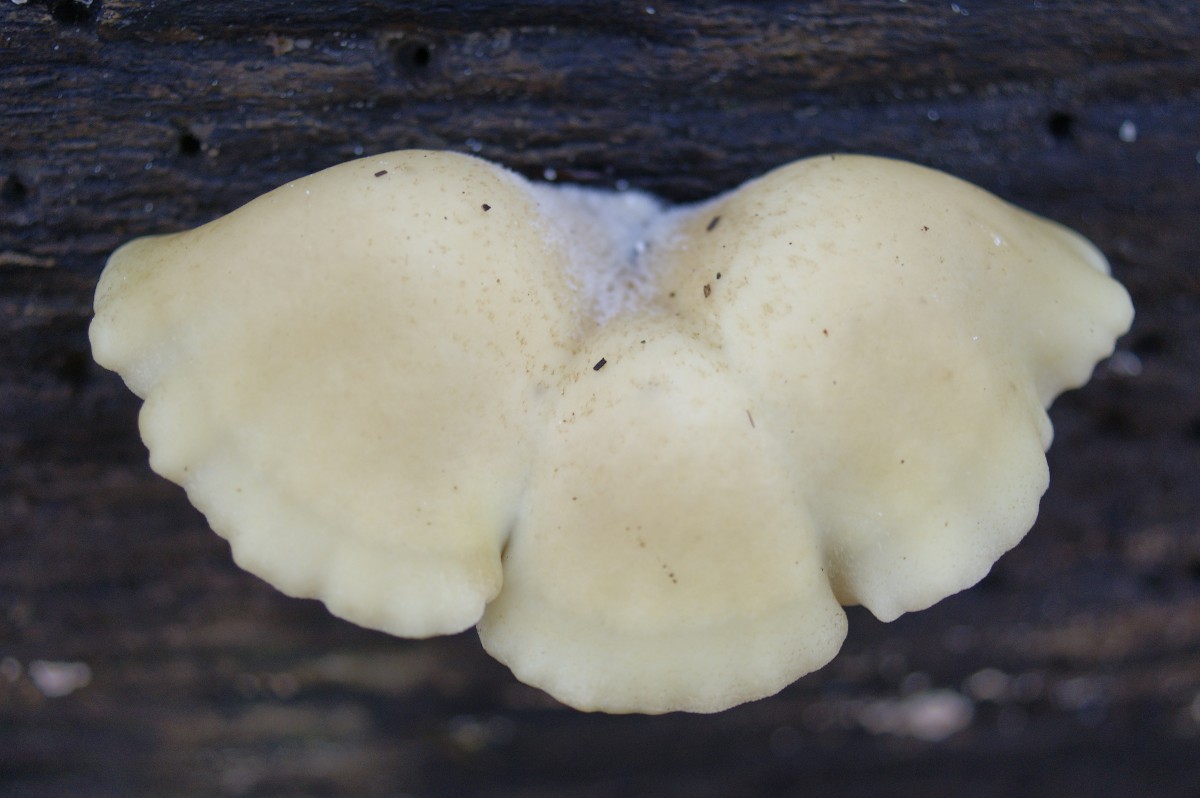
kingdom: Fungi
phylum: Basidiomycota
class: Agaricomycetes
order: Agaricales
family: Crepidotaceae
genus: Crepidotus
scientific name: Crepidotus calolepis
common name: småskællet muslingesvamp
